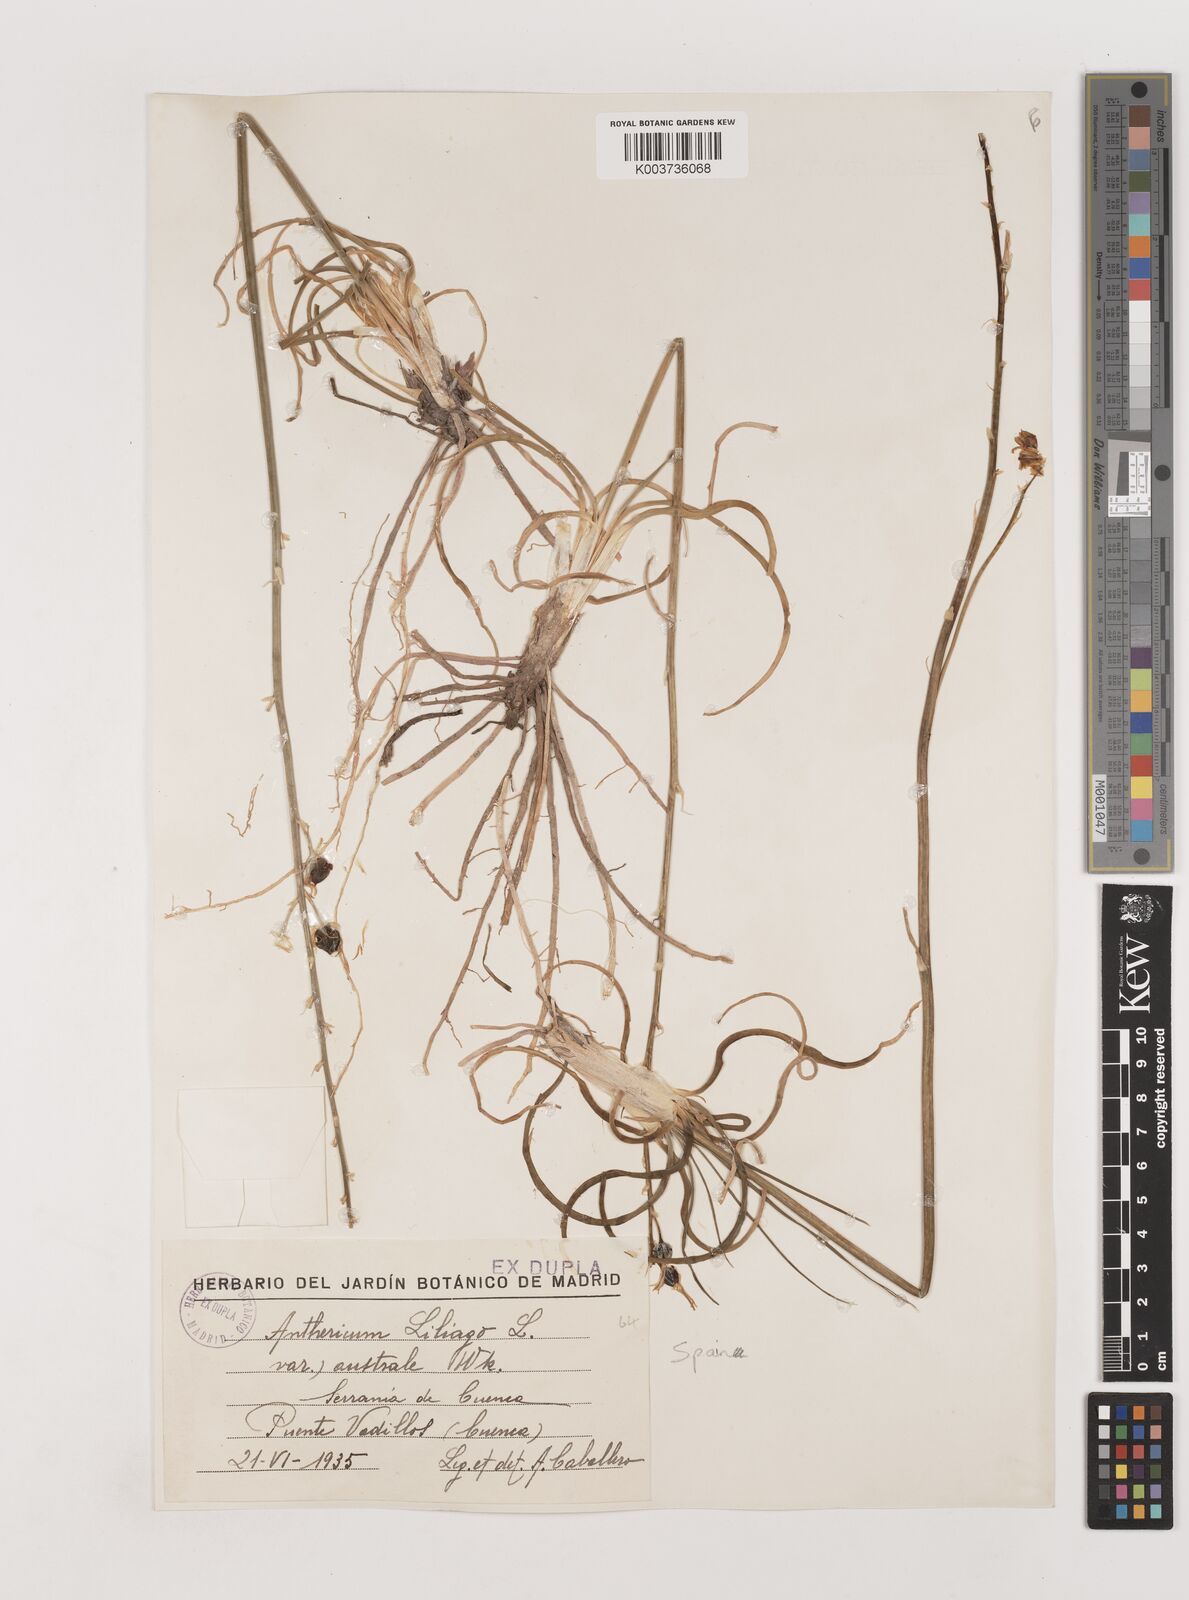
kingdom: Plantae
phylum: Tracheophyta
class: Liliopsida
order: Asparagales
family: Asparagaceae
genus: Anthericum
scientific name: Anthericum liliago
